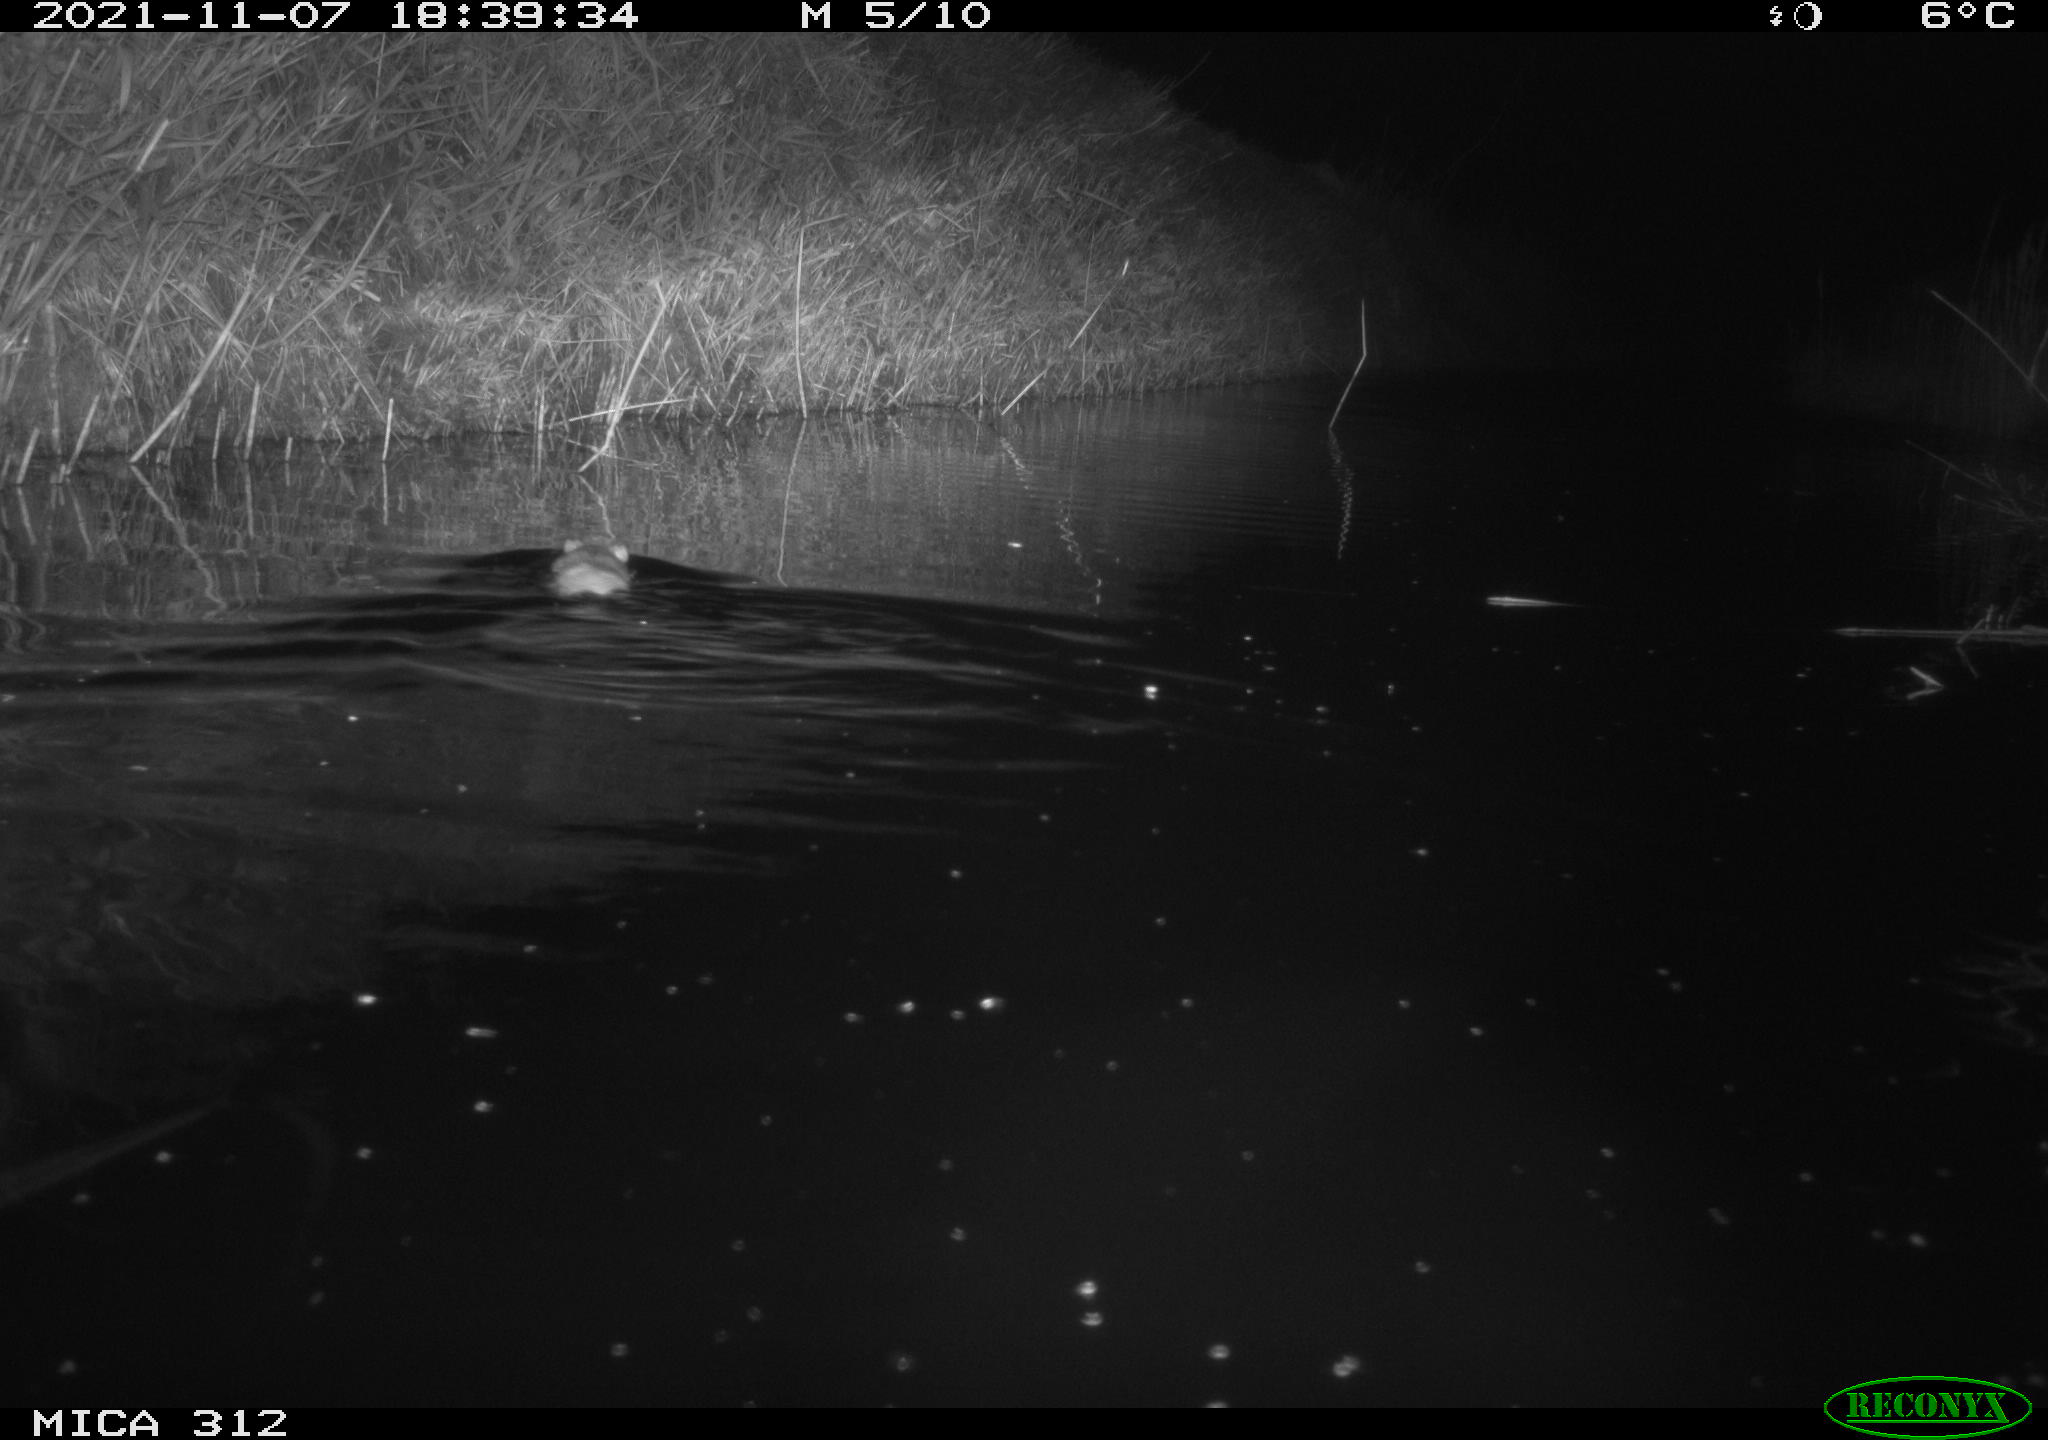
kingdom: Animalia
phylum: Chordata
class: Mammalia
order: Rodentia
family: Muridae
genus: Rattus
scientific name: Rattus norvegicus
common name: Brown rat
